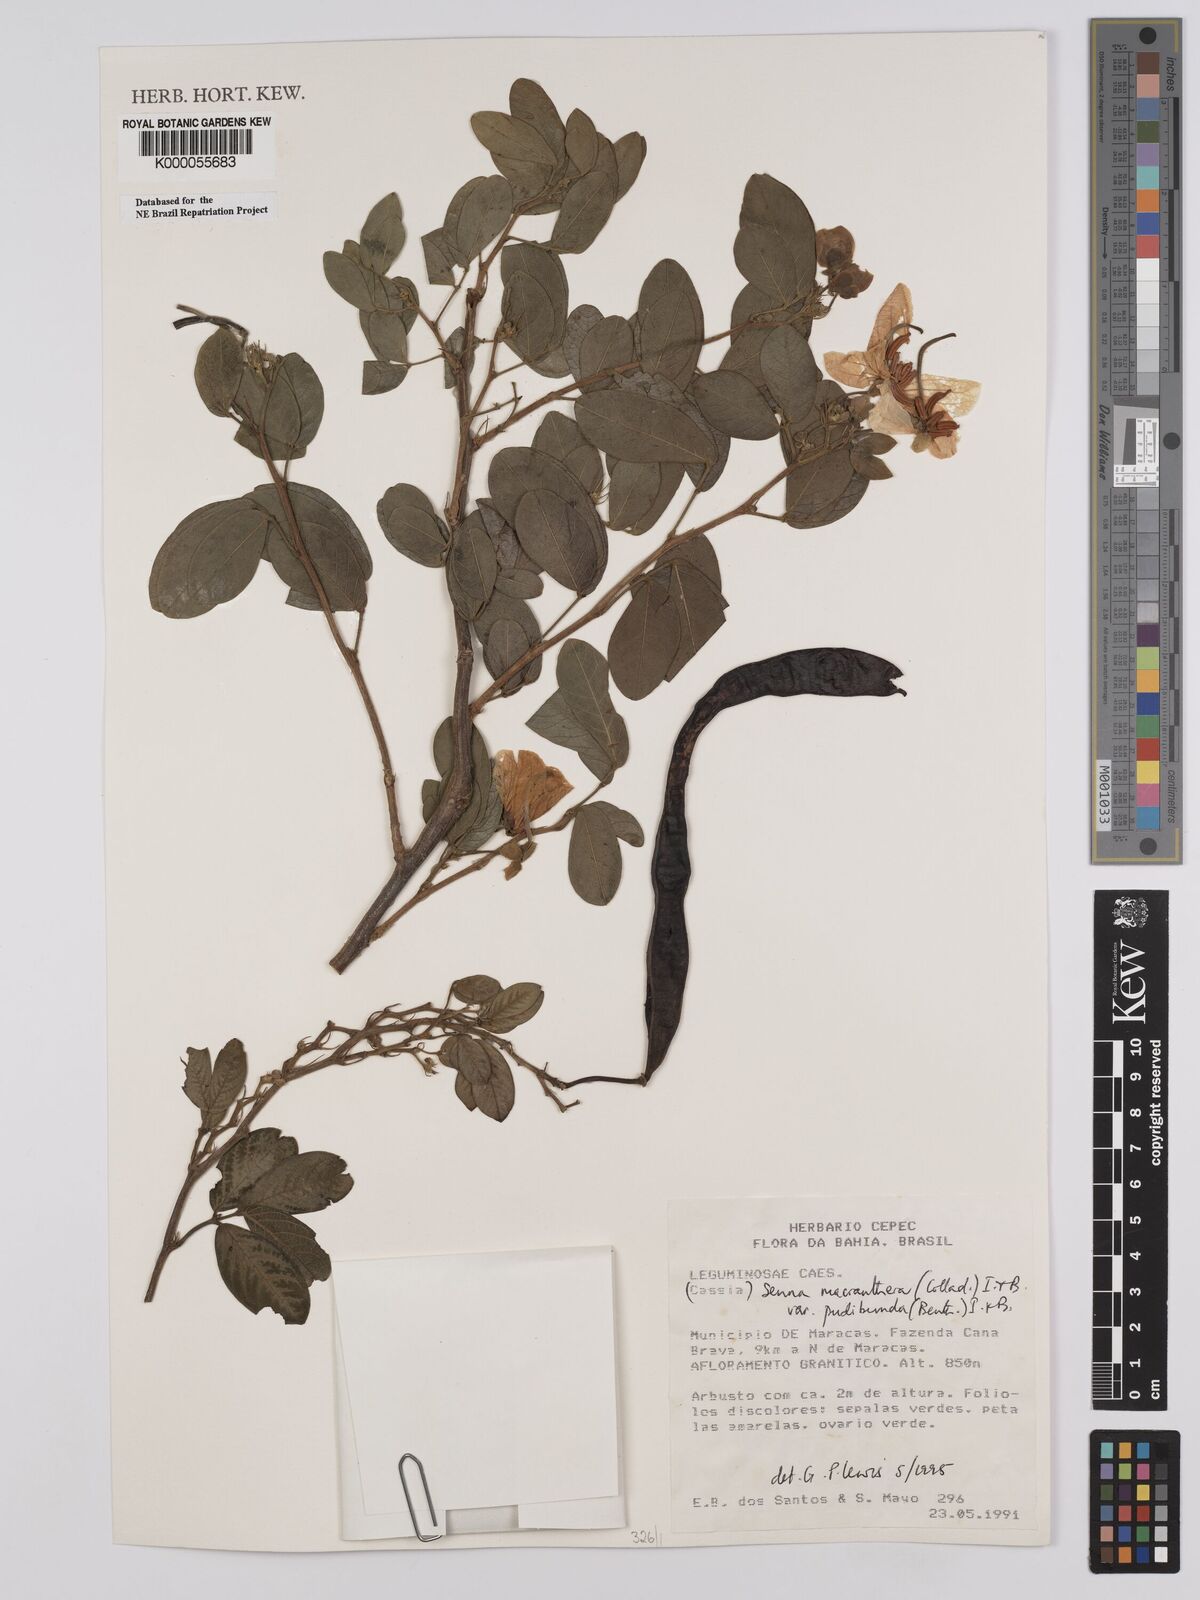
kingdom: Plantae
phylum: Tracheophyta
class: Magnoliopsida
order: Fabales
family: Fabaceae
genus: Senna
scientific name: Senna macranthera
